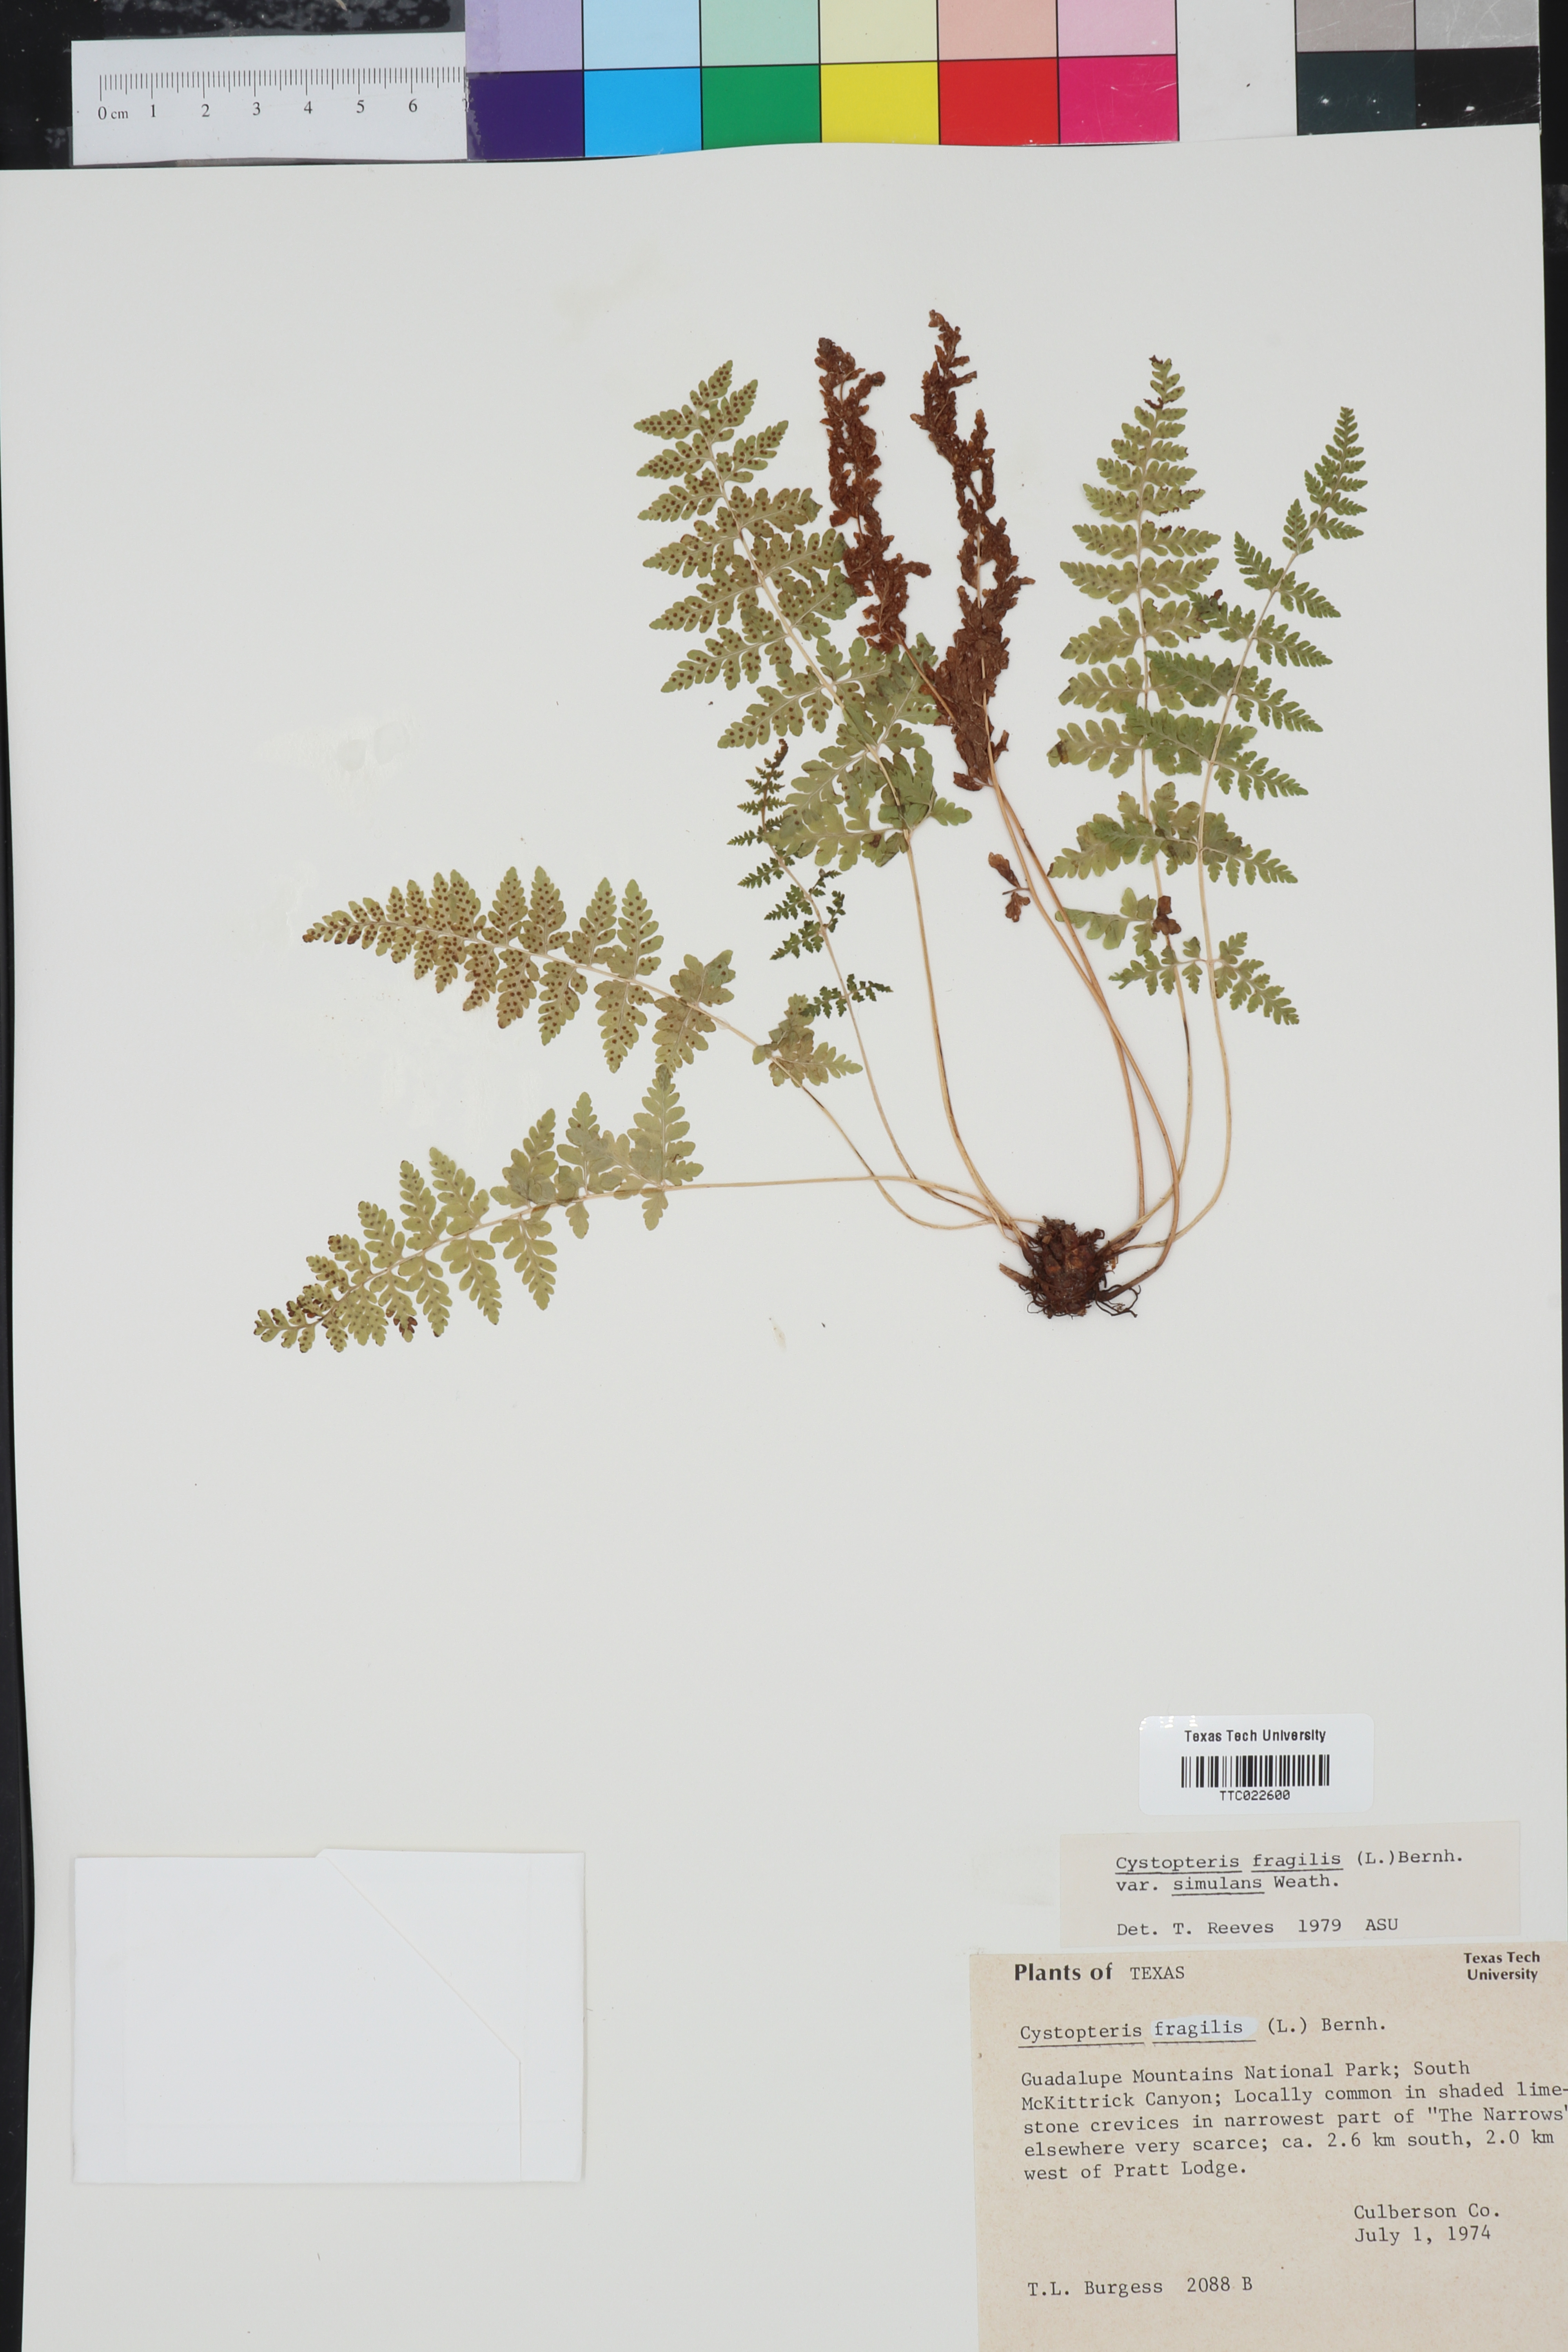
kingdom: Plantae
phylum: Tracheophyta
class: Polypodiopsida
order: Polypodiales
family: Cystopteridaceae
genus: Cystopteris
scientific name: Cystopteris tennesseensis
